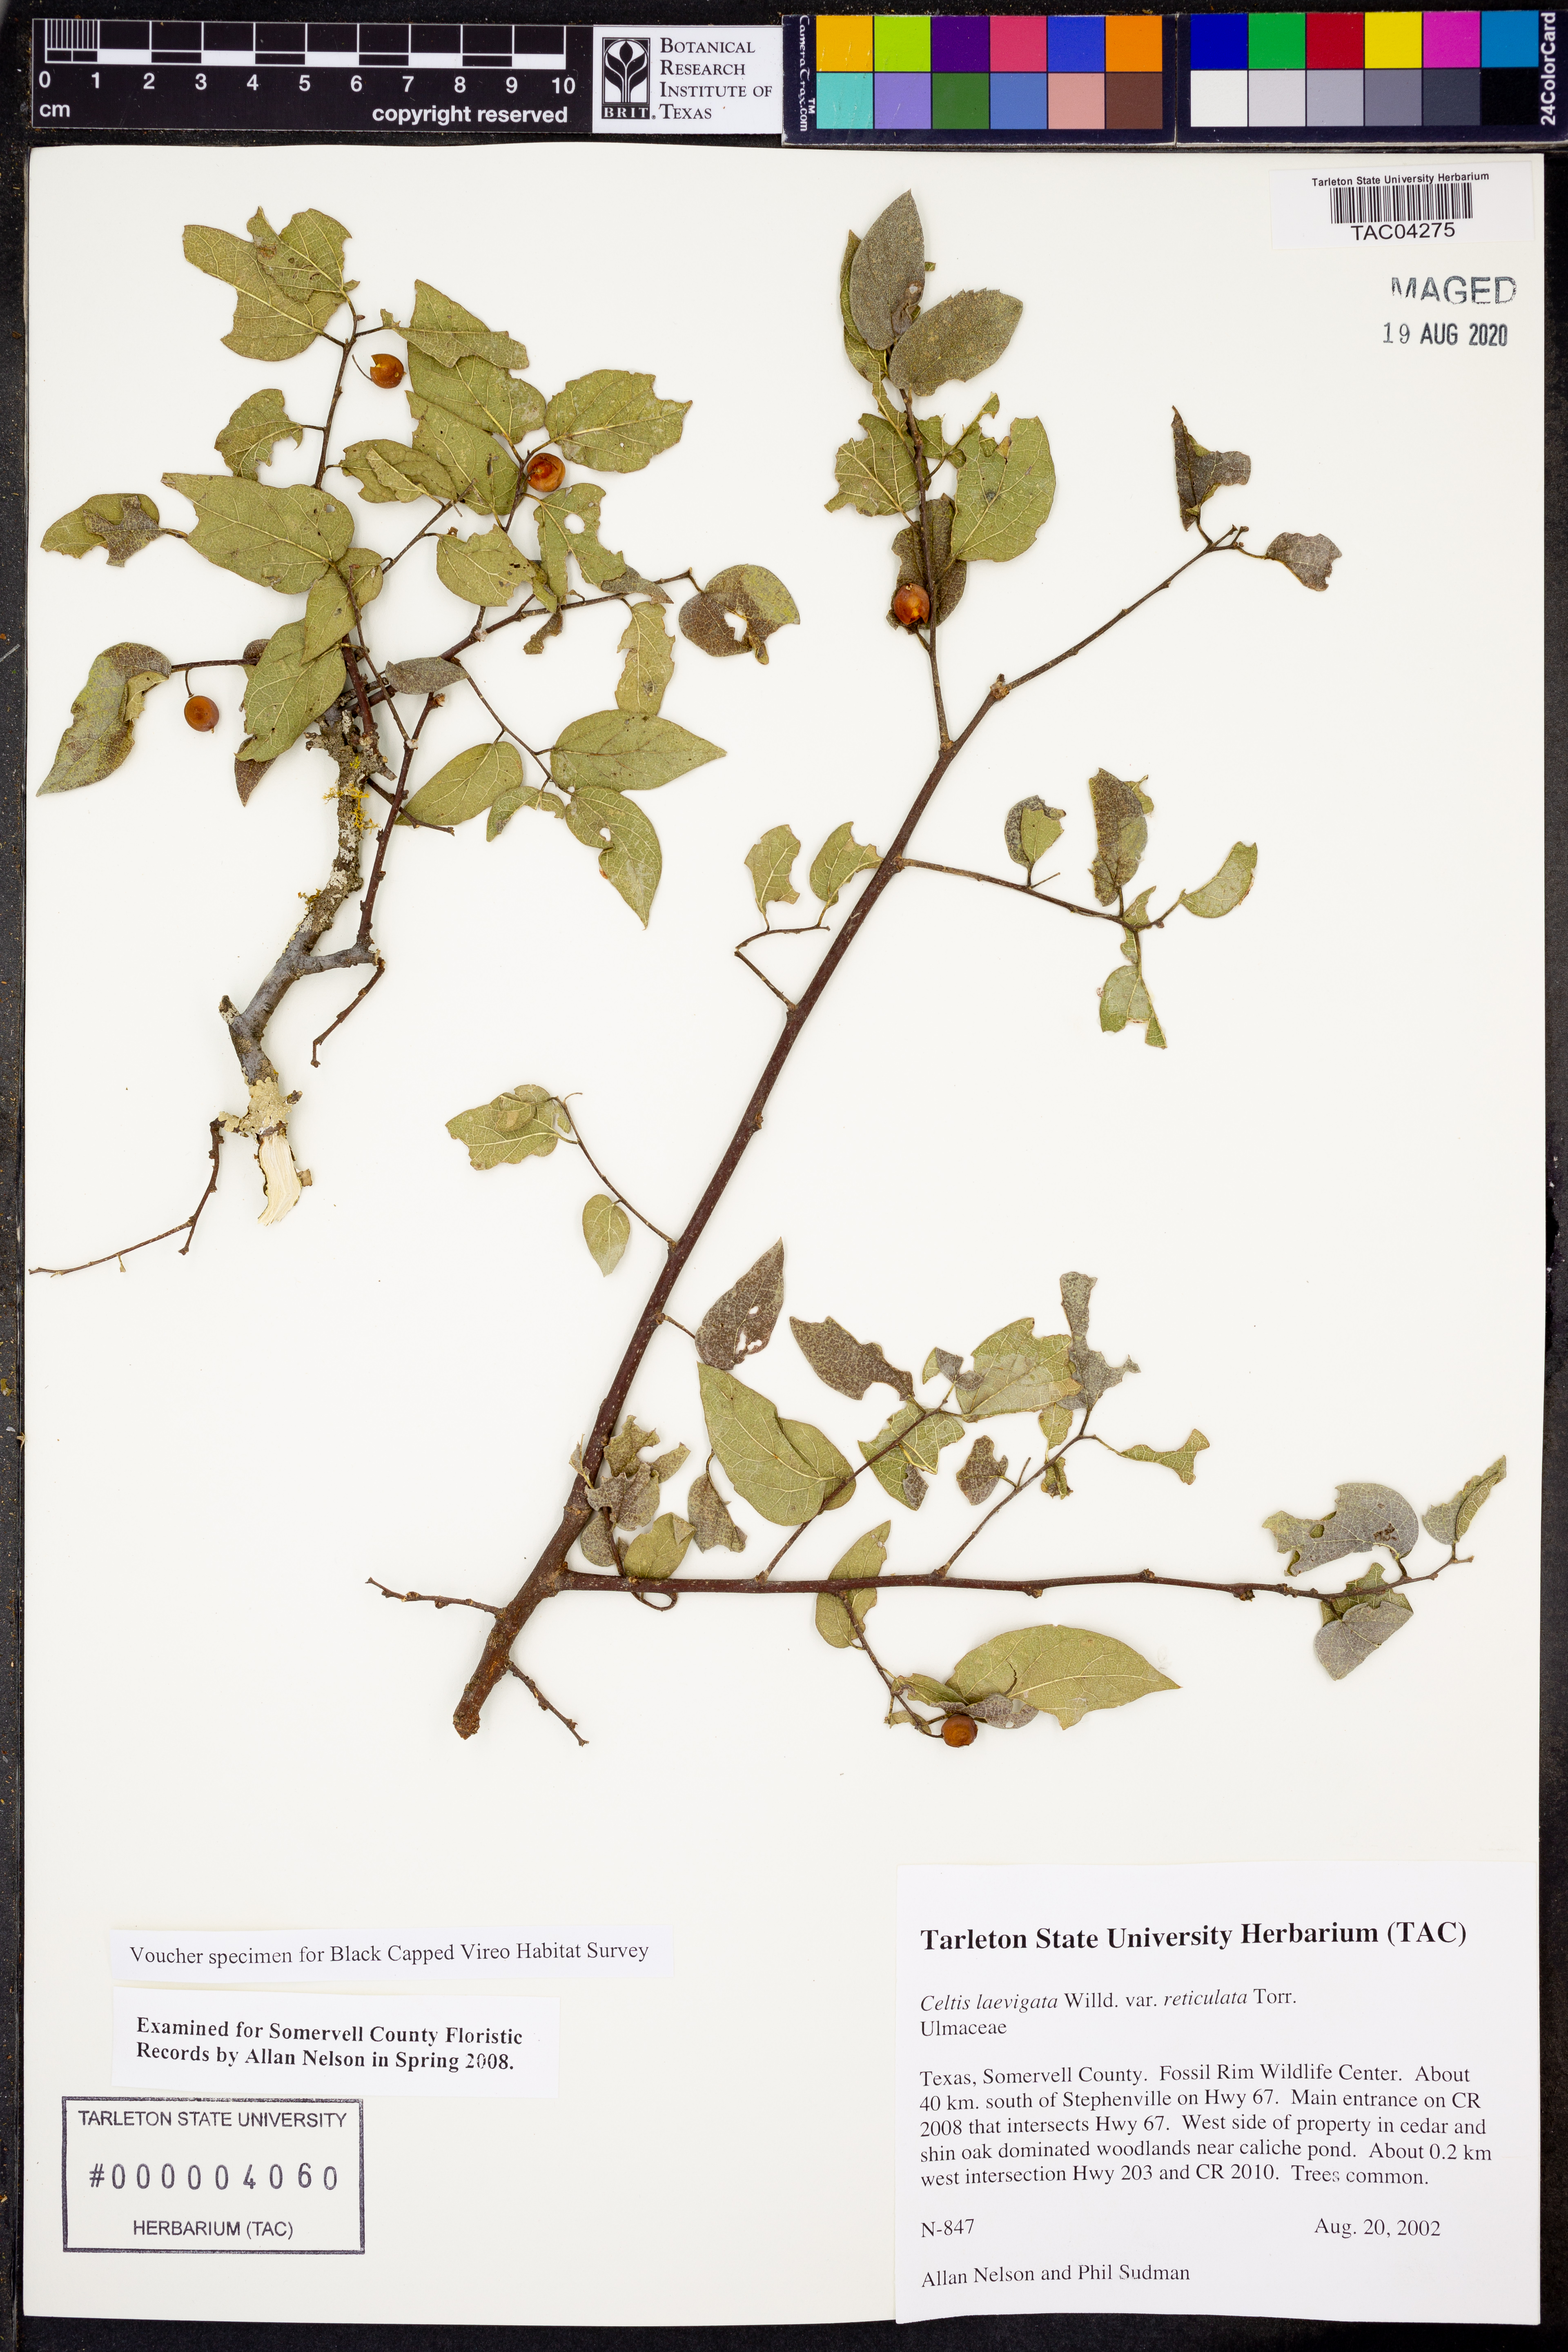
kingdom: Plantae
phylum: Tracheophyta
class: Magnoliopsida
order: Rosales
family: Cannabaceae
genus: Celtis
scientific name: Celtis reticulata
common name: Netleaf hackberry
